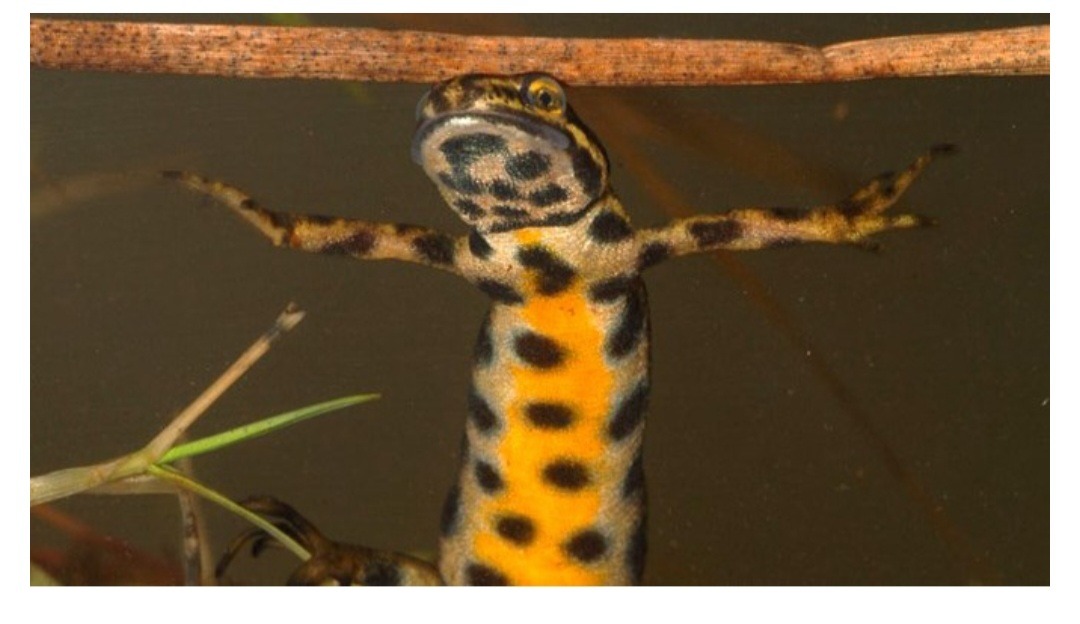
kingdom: Animalia
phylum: Chordata
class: Amphibia
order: Caudata
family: Salamandridae
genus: Lissotriton
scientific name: Lissotriton vulgaris
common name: Lille vandsalamander
